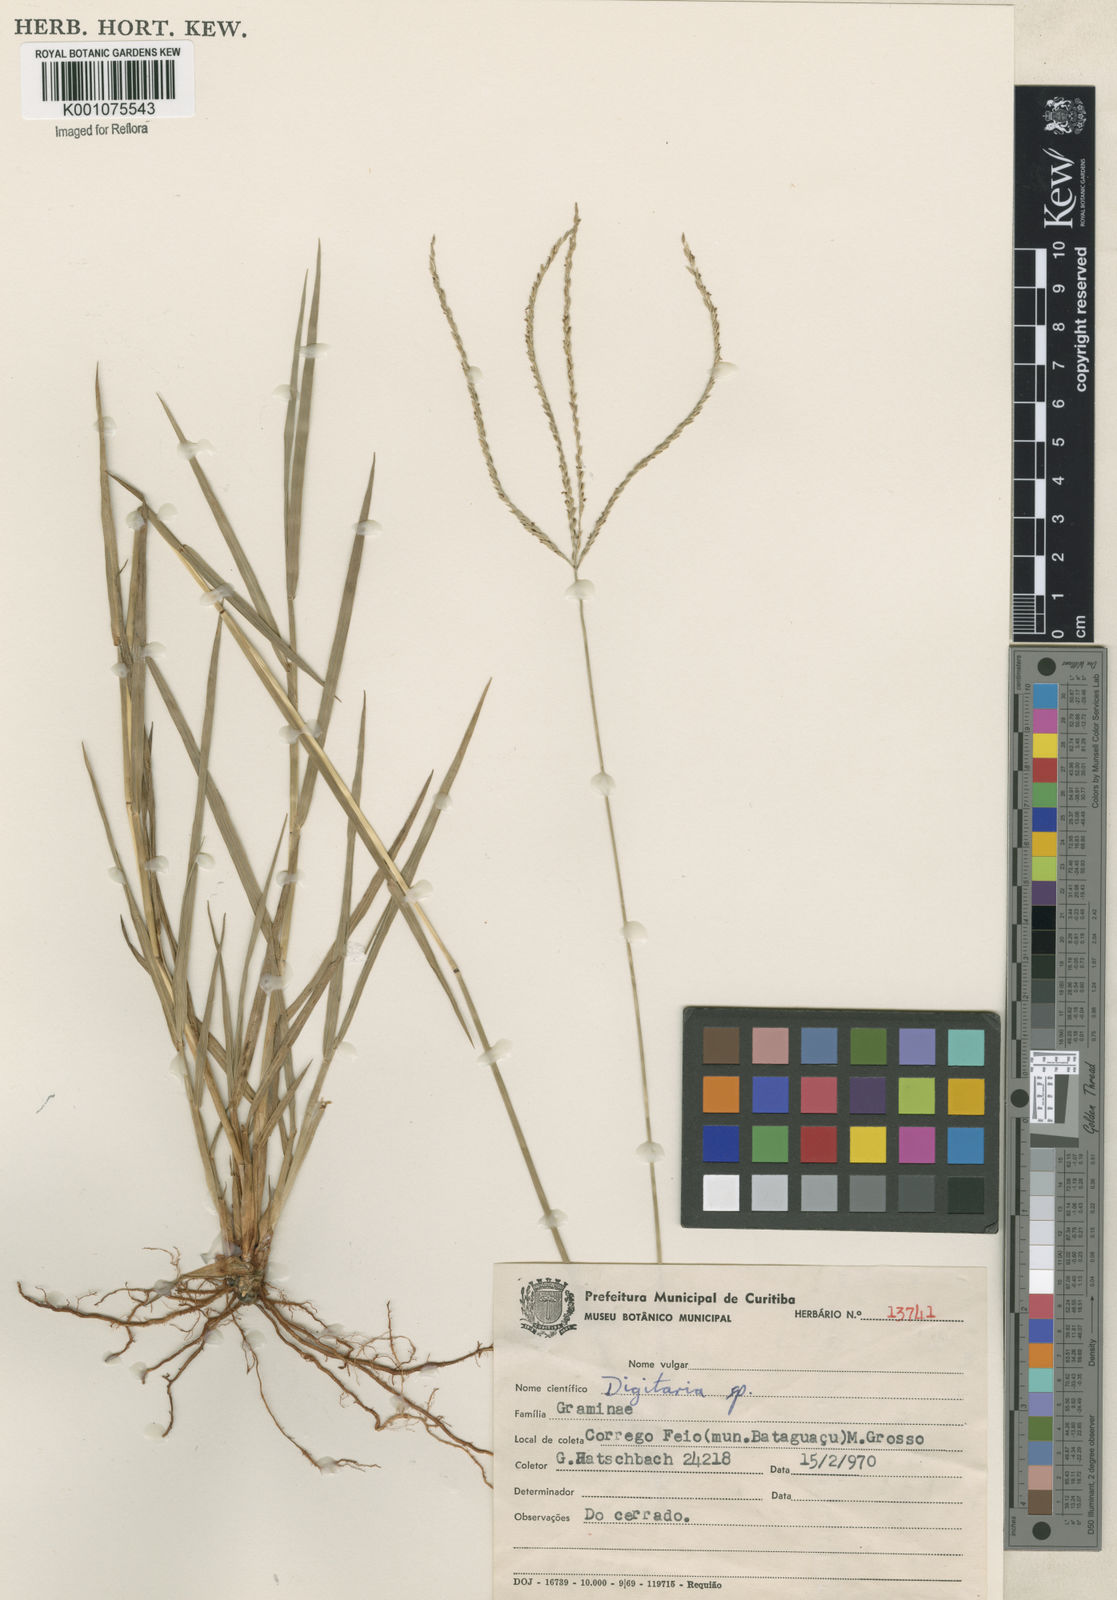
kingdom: Plantae
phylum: Tracheophyta
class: Liliopsida
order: Poales
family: Poaceae
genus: Digitaria
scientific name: Digitaria ciliaris
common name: Tropical finger-grass
